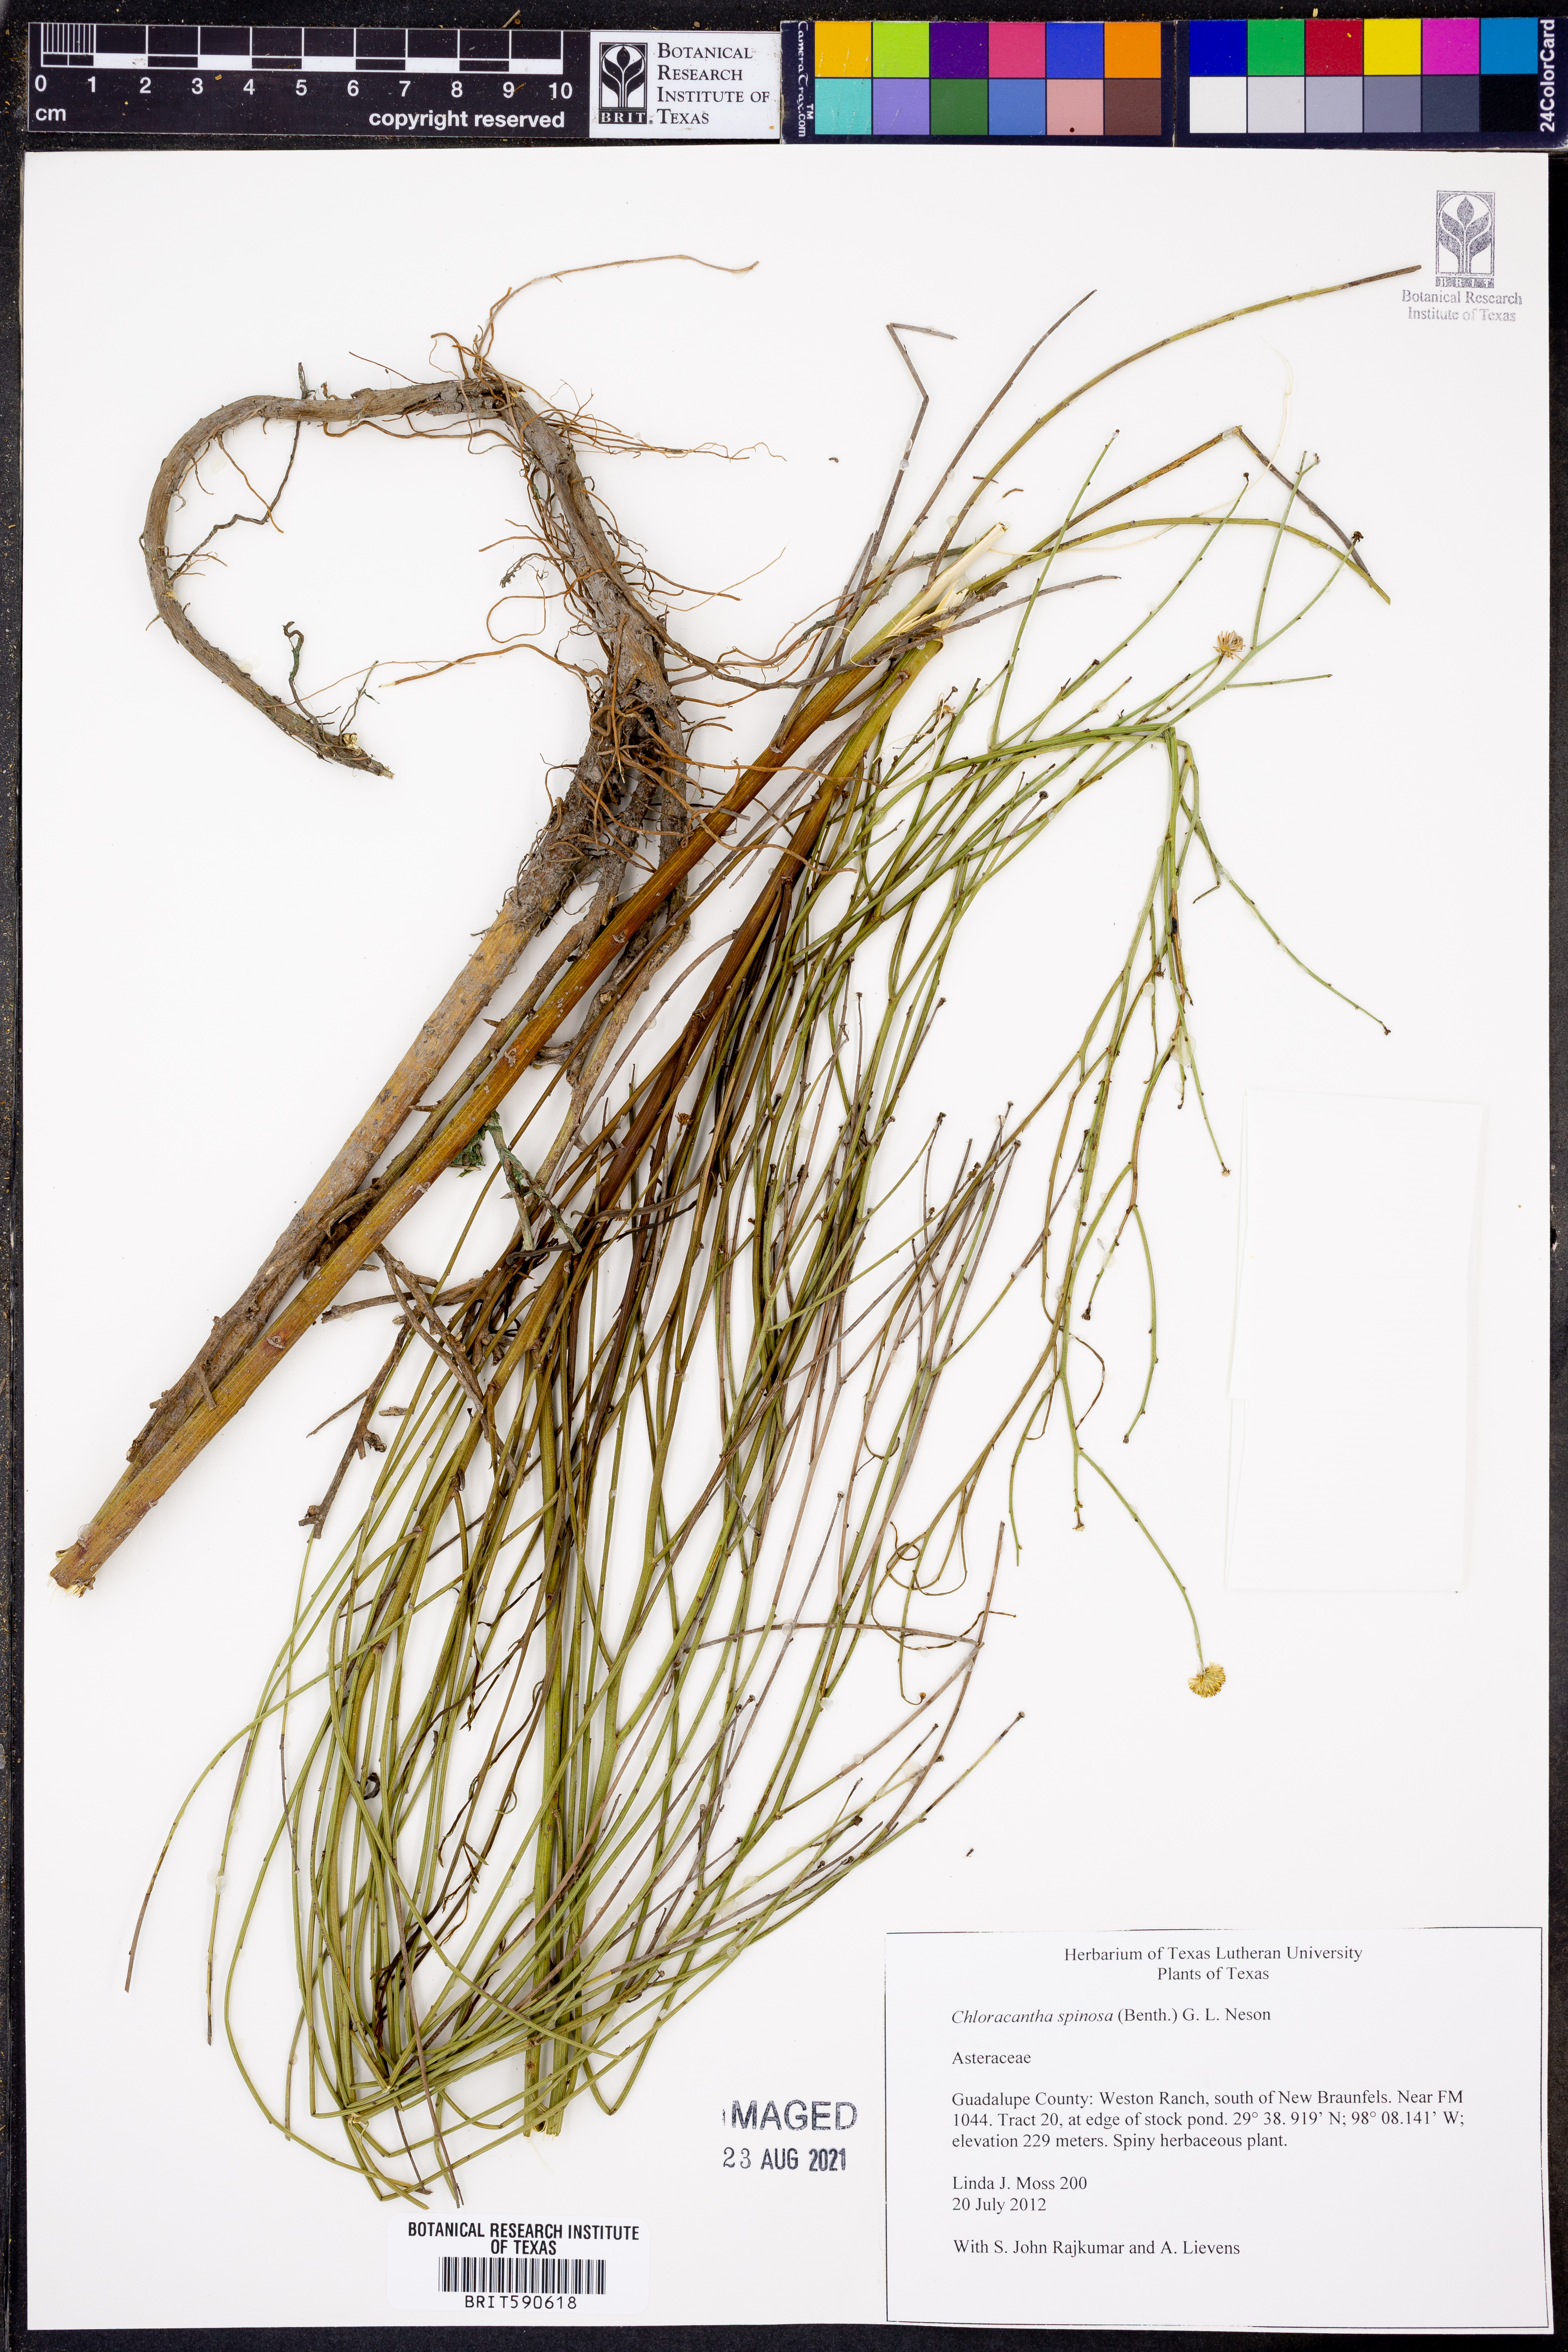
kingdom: Plantae
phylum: Tracheophyta
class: Magnoliopsida
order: Asterales
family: Asteraceae
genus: Chloracantha
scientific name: Chloracantha spinosa
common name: Mexican devilweed
